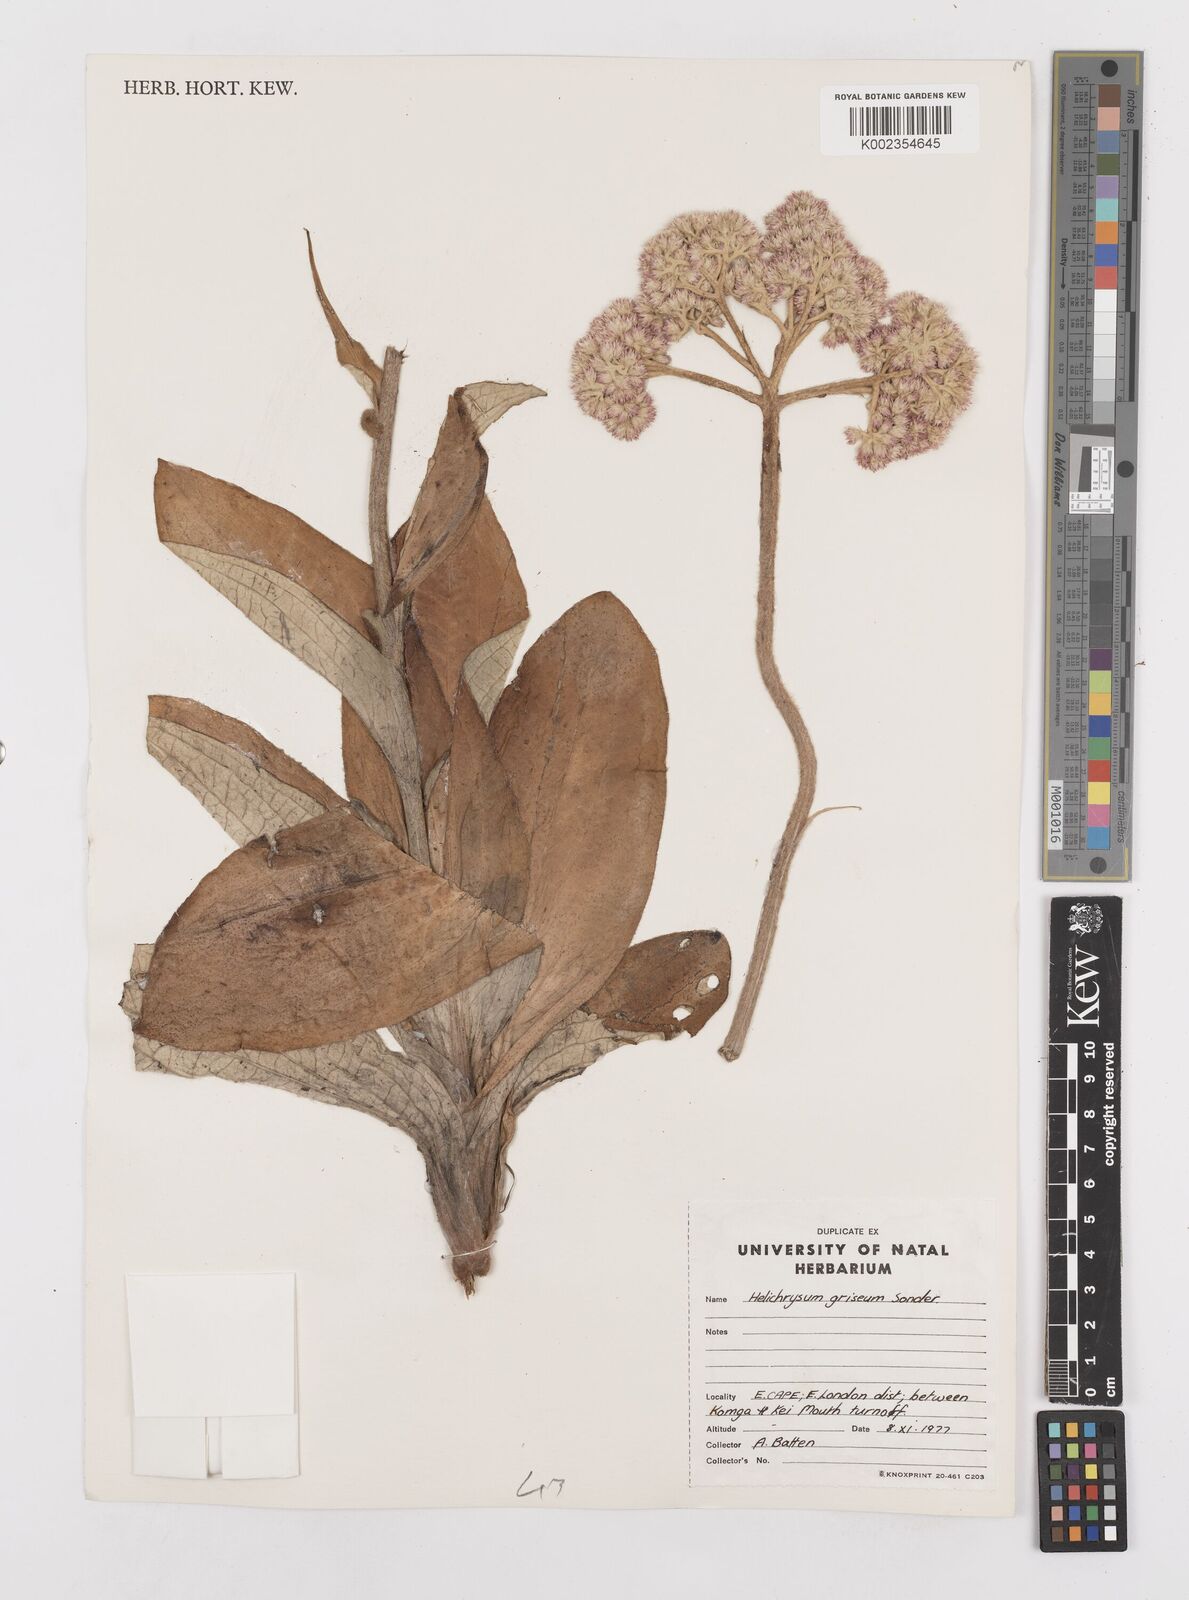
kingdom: Plantae
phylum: Tracheophyta
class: Magnoliopsida
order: Asterales
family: Asteraceae
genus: Helichrysum
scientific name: Helichrysum griseum
